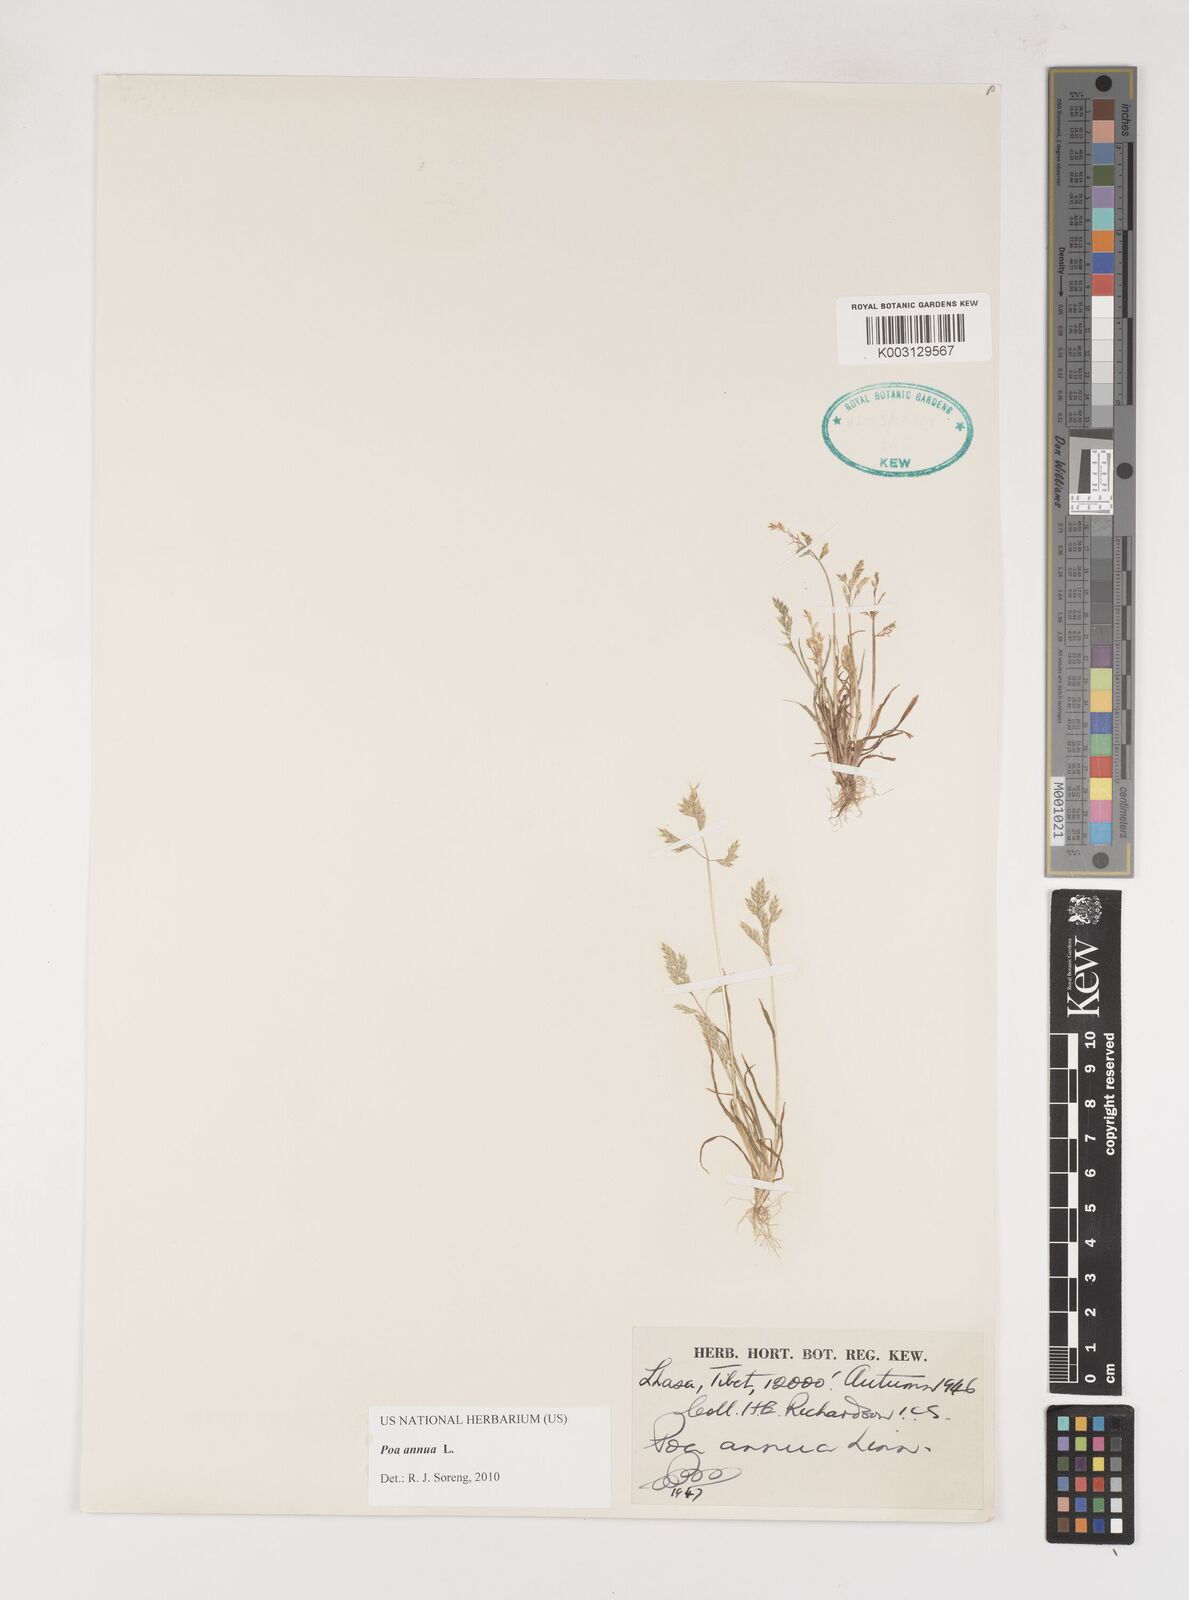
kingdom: Plantae
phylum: Tracheophyta
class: Liliopsida
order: Poales
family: Poaceae
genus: Poa
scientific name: Poa annua
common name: Annual bluegrass
